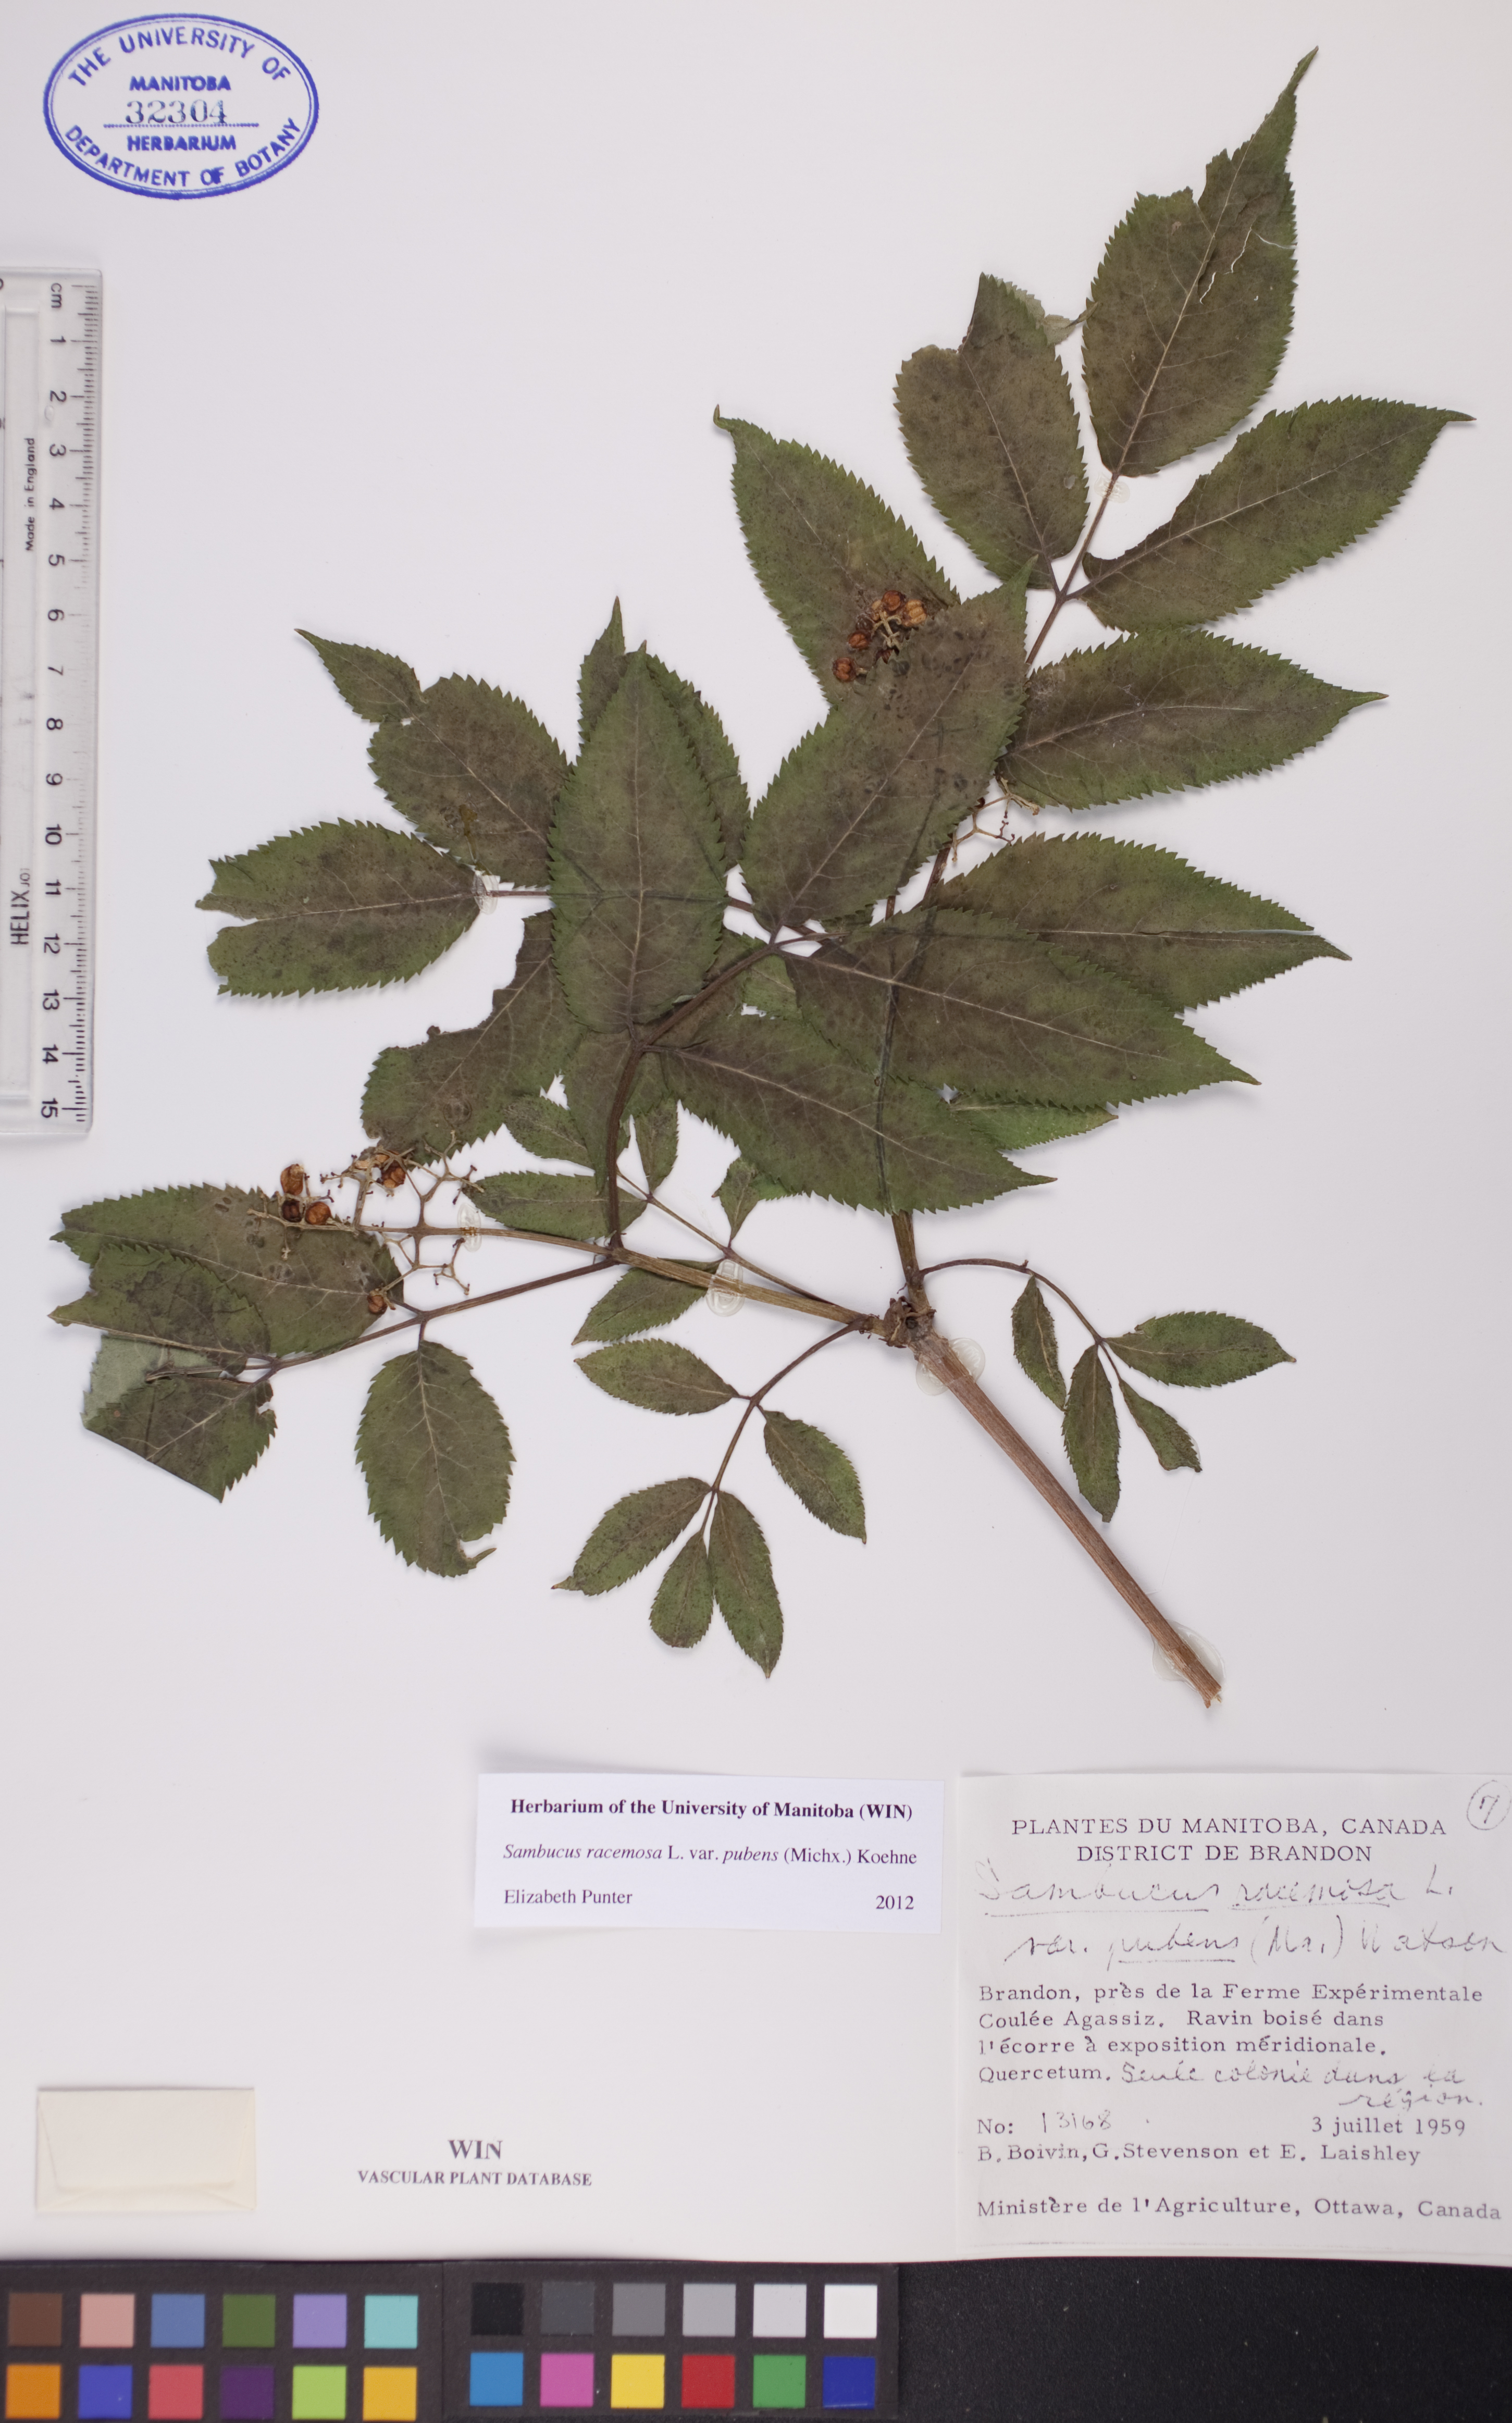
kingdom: Plantae
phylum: Tracheophyta
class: Magnoliopsida
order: Dipsacales
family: Viburnaceae
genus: Sambucus
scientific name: Sambucus racemosa
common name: Red-berried elder
